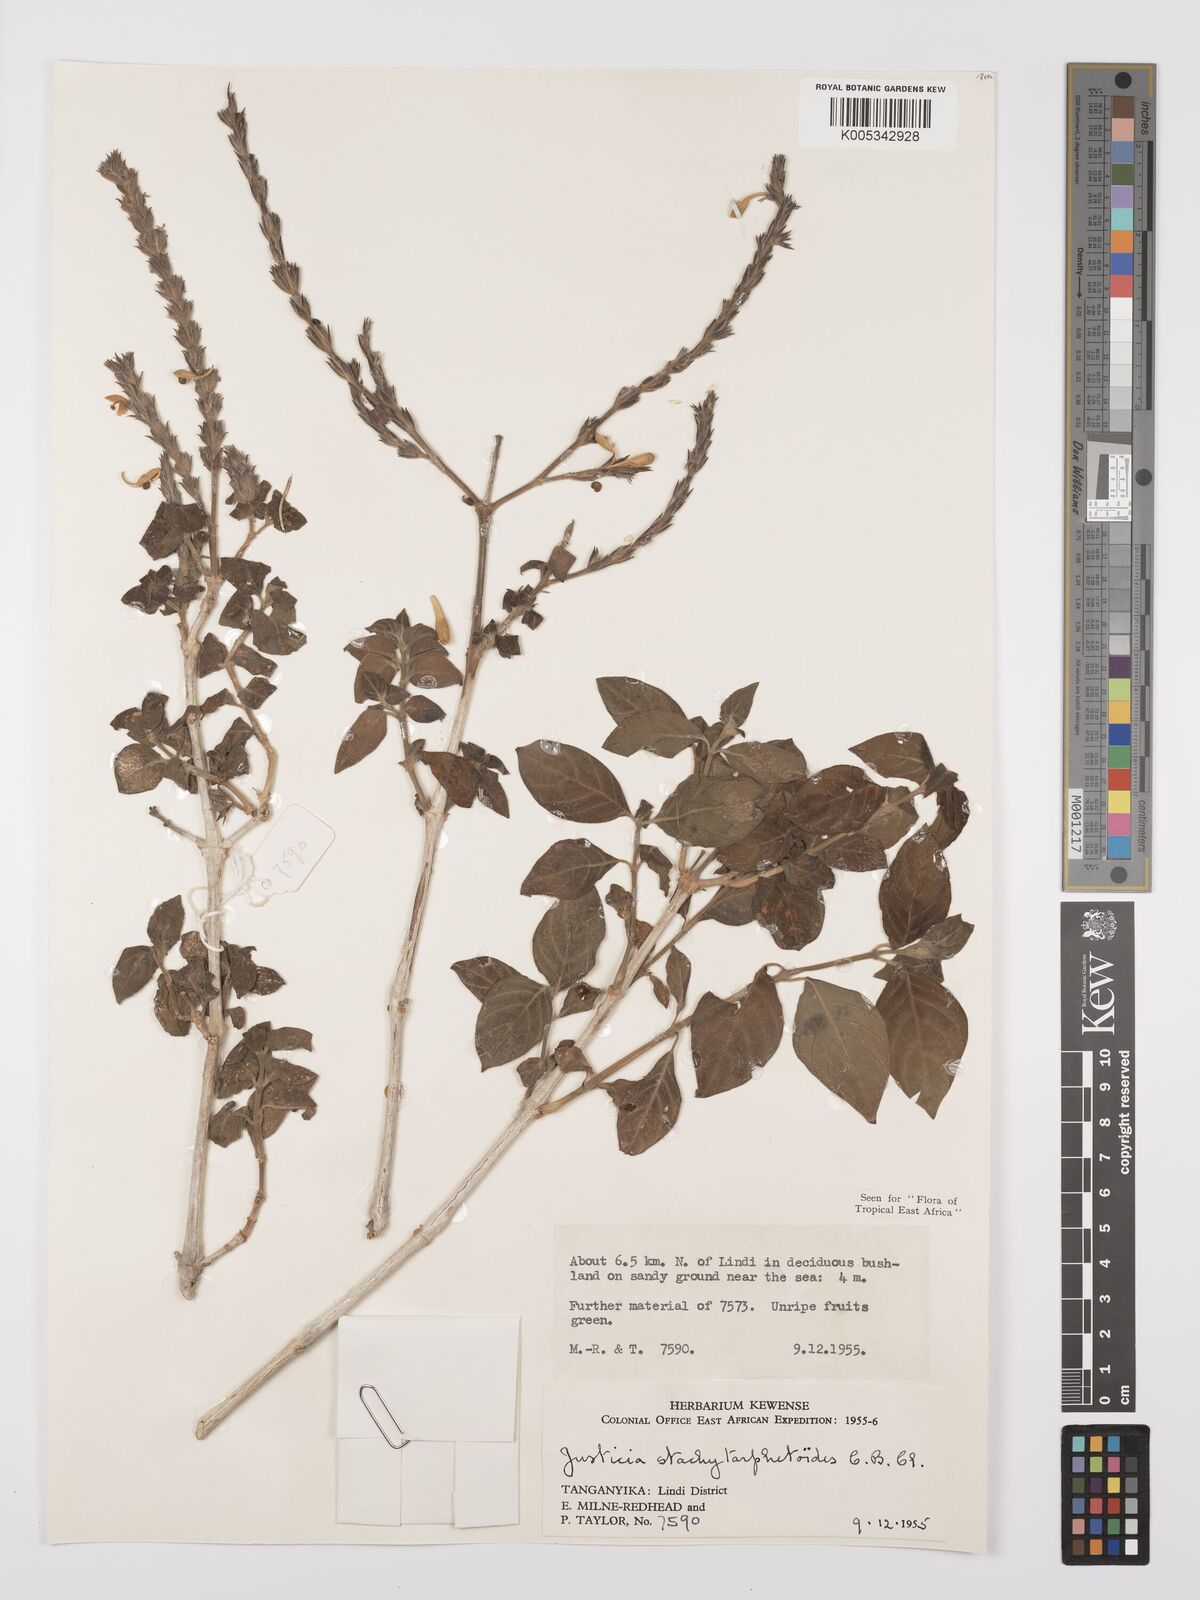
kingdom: Plantae
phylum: Tracheophyta
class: Magnoliopsida
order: Lamiales
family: Acanthaceae
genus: Justicia
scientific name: Justicia stachytarphetoides
